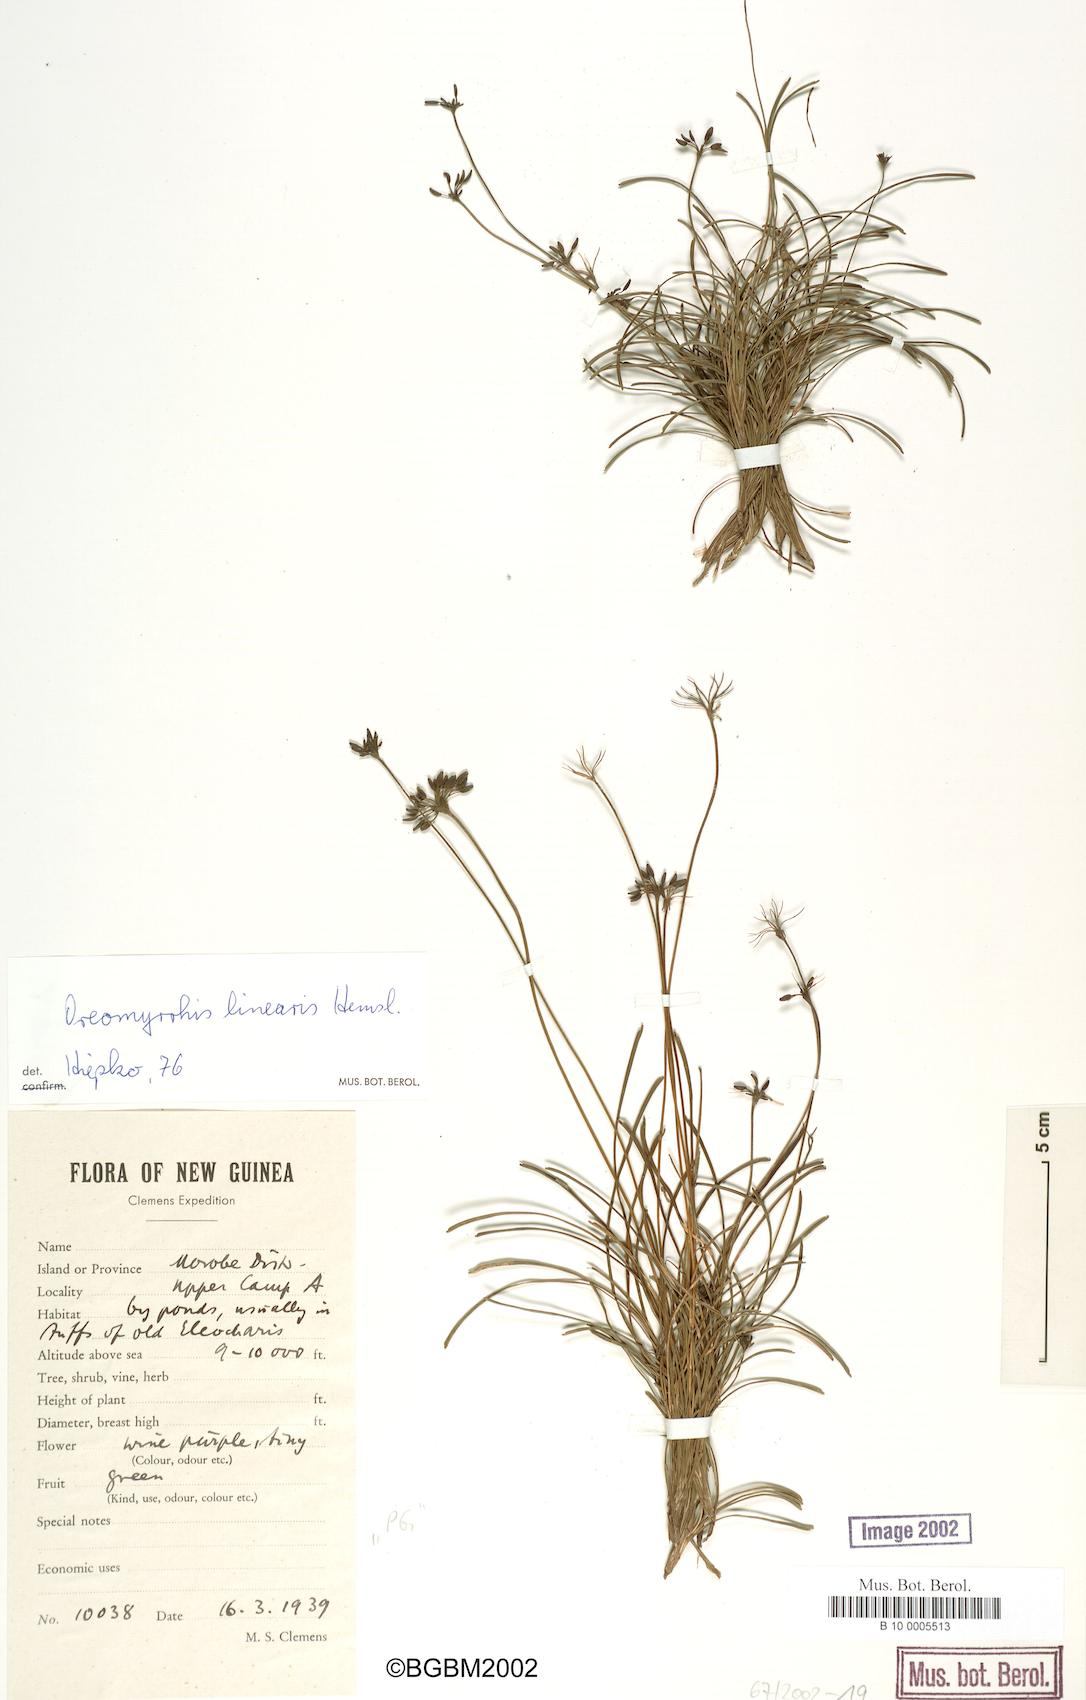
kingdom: Plantae
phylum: Tracheophyta
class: Magnoliopsida
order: Apiales
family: Apiaceae
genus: Chaerophyllum
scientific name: Chaerophyllum lineare
